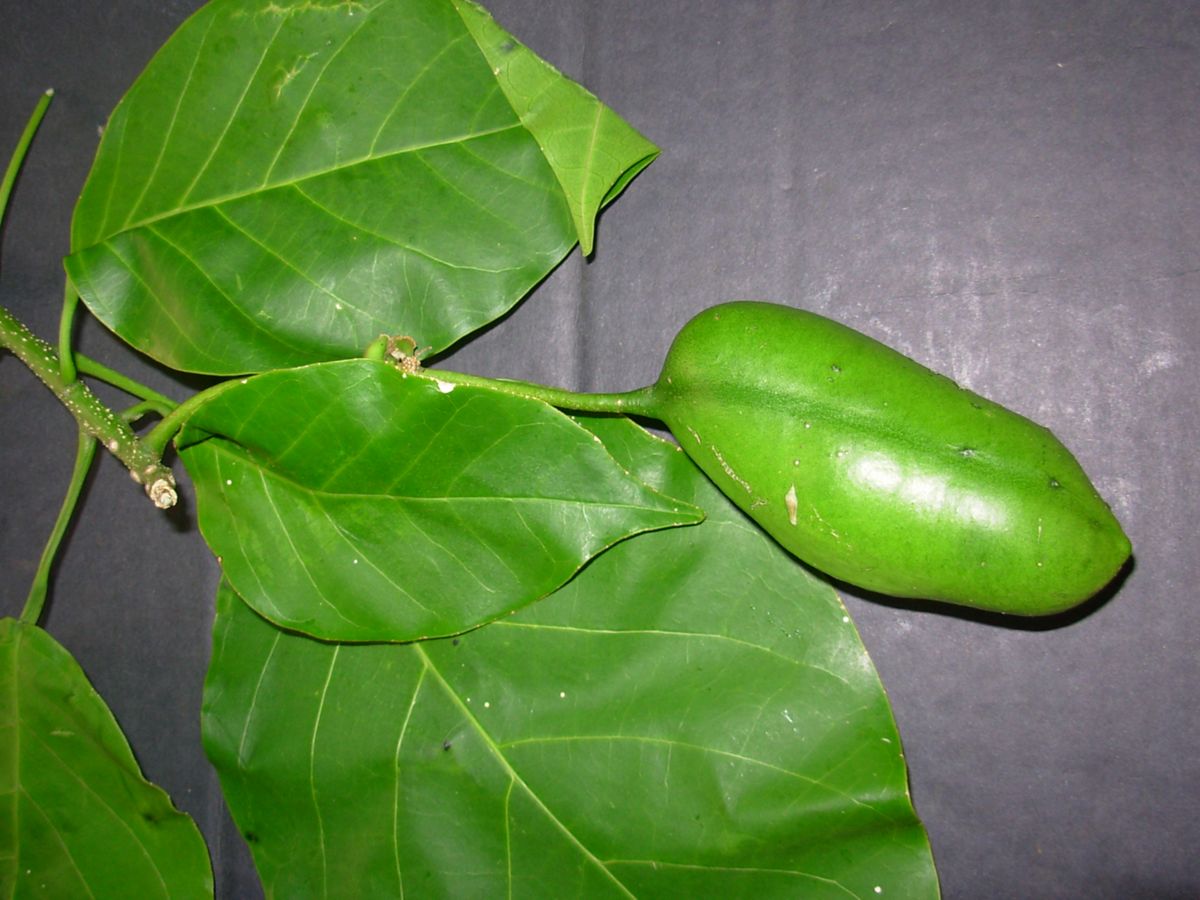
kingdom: Plantae
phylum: Tracheophyta
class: Magnoliopsida
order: Brassicales
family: Capparaceae
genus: Capparidastrum
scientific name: Capparidastrum mollicellum
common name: Caper
